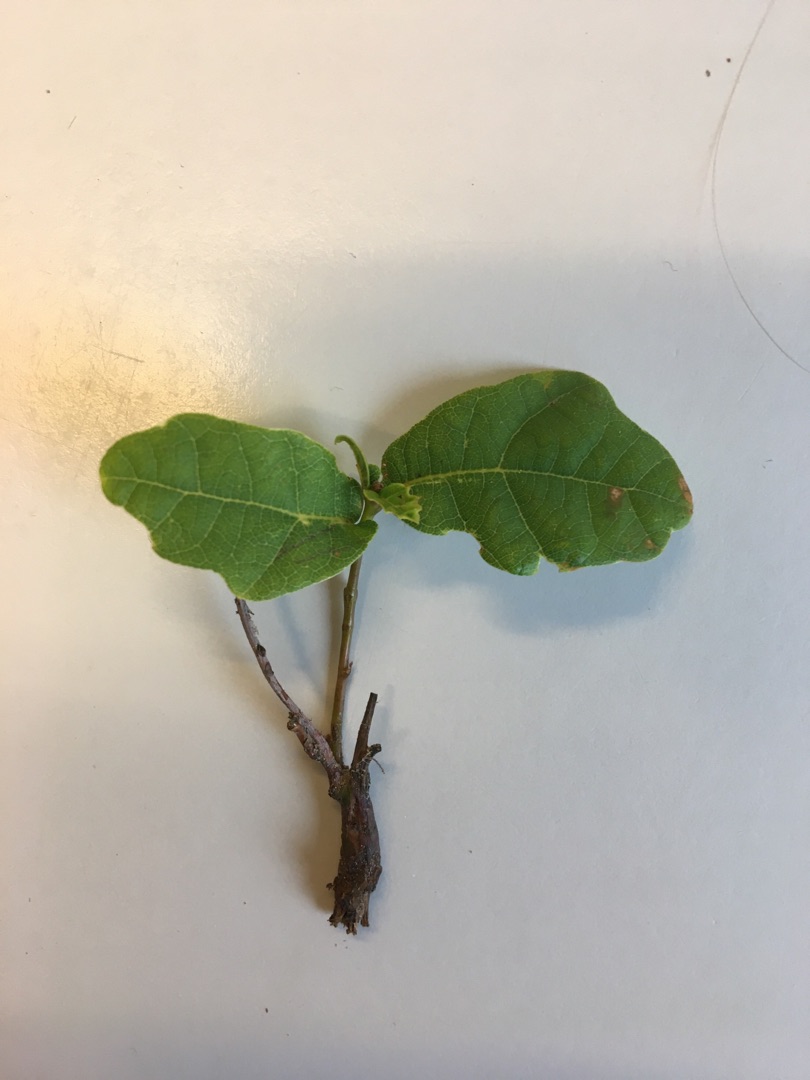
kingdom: Plantae
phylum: Tracheophyta
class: Magnoliopsida
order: Fagales
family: Fagaceae
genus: Quercus
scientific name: Quercus robur
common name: Stilk-eg/almindelig eg
